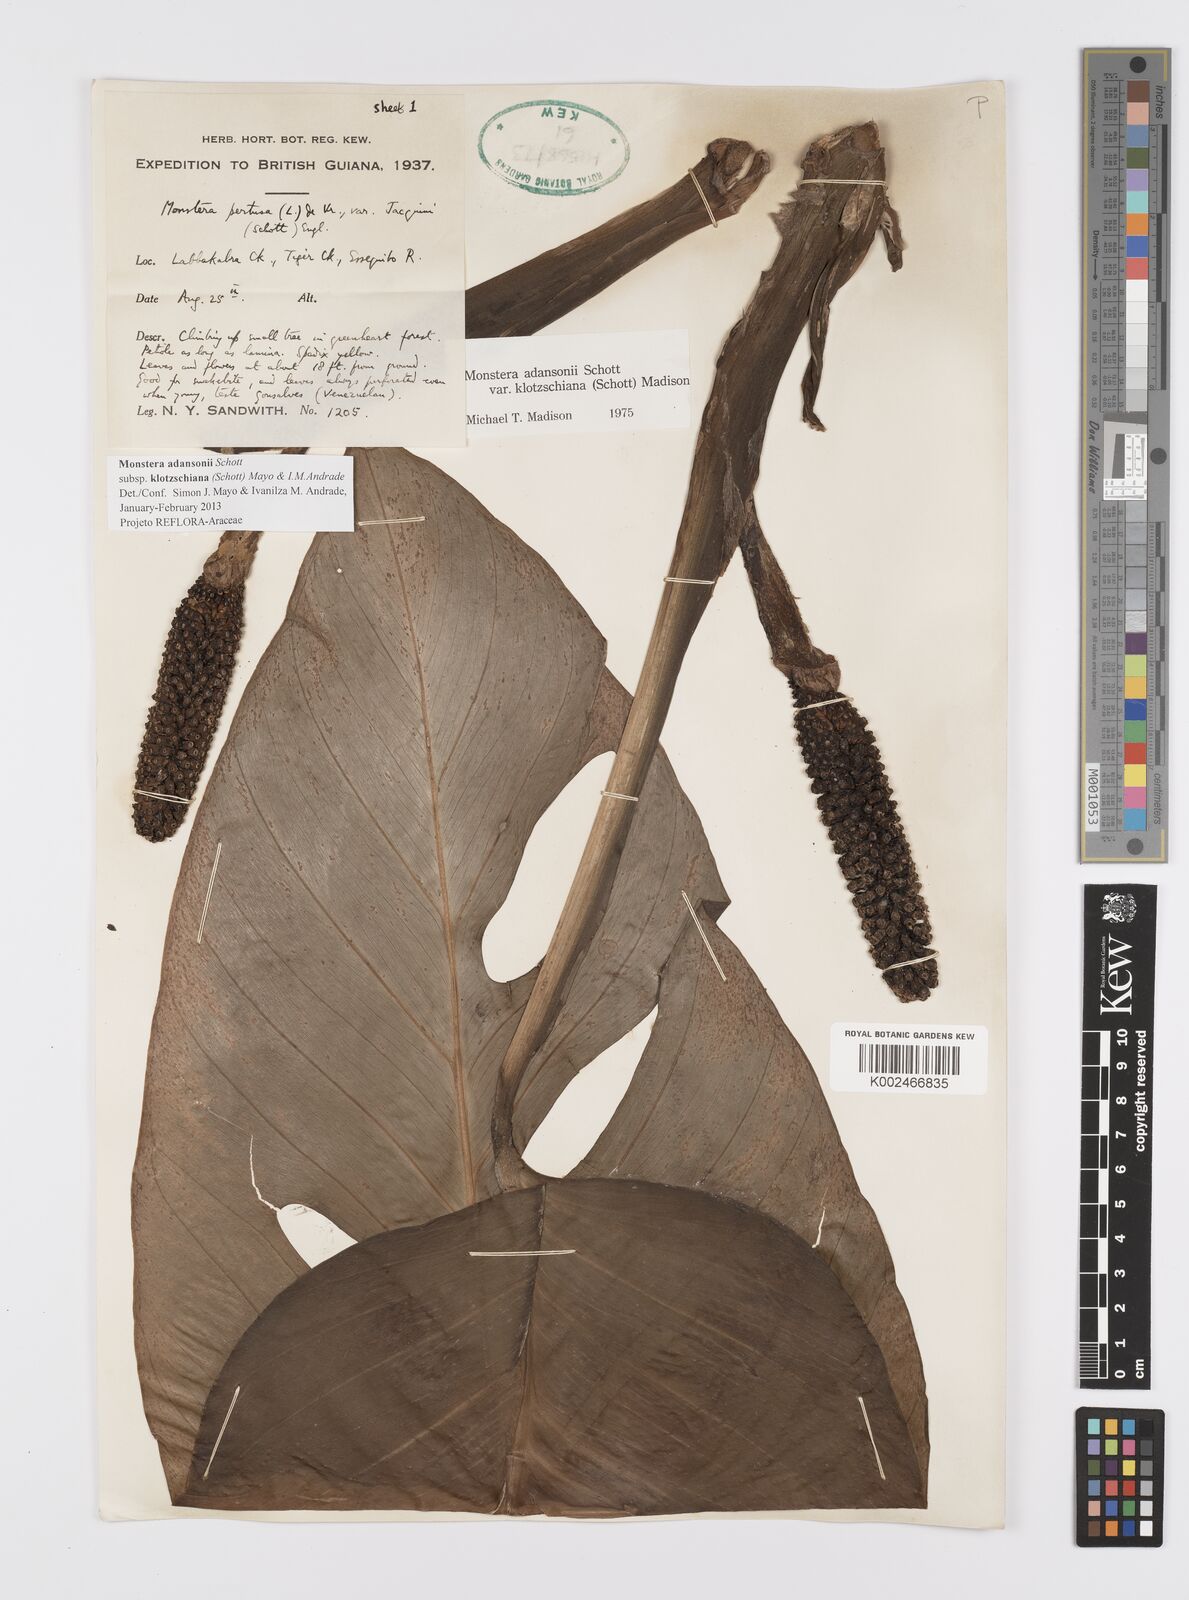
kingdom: Plantae
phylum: Tracheophyta
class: Liliopsida
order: Alismatales
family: Araceae
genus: Monstera
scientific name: Monstera adansonii
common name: Tarovine
